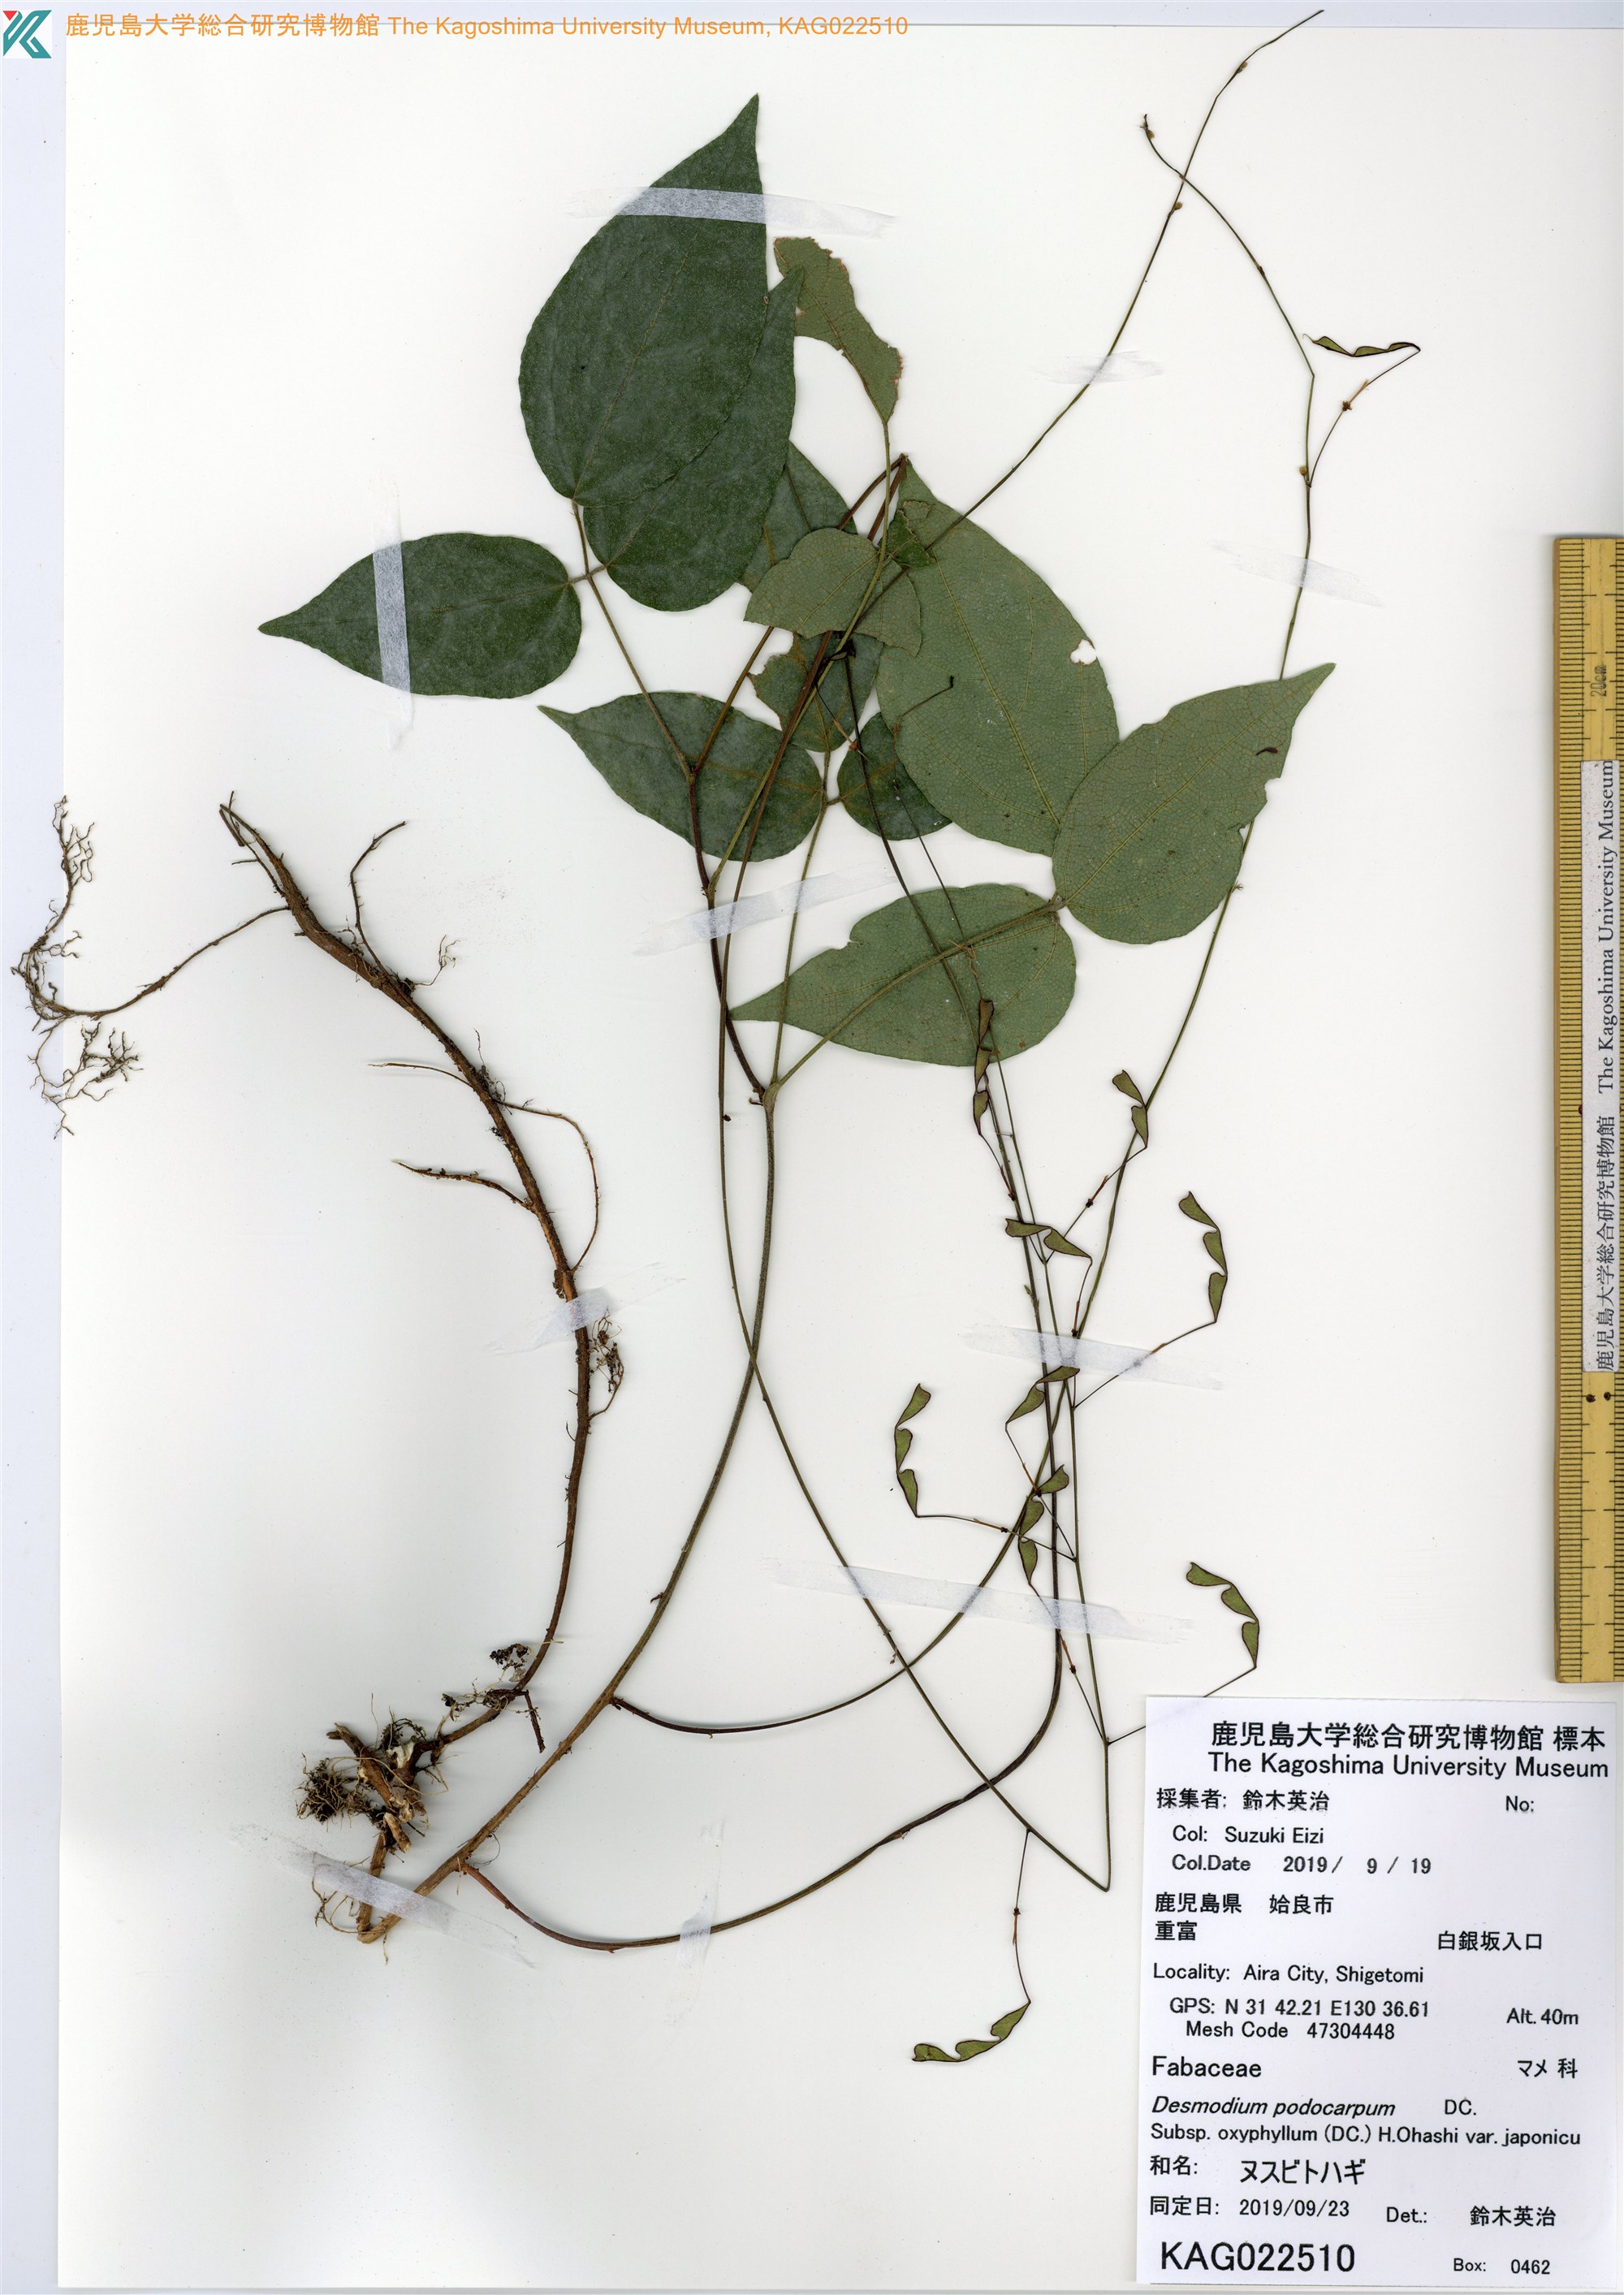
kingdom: Plantae
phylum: Tracheophyta
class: Magnoliopsida
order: Fabales
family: Fabaceae
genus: Hylodesmum
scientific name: Hylodesmum podocarpum
